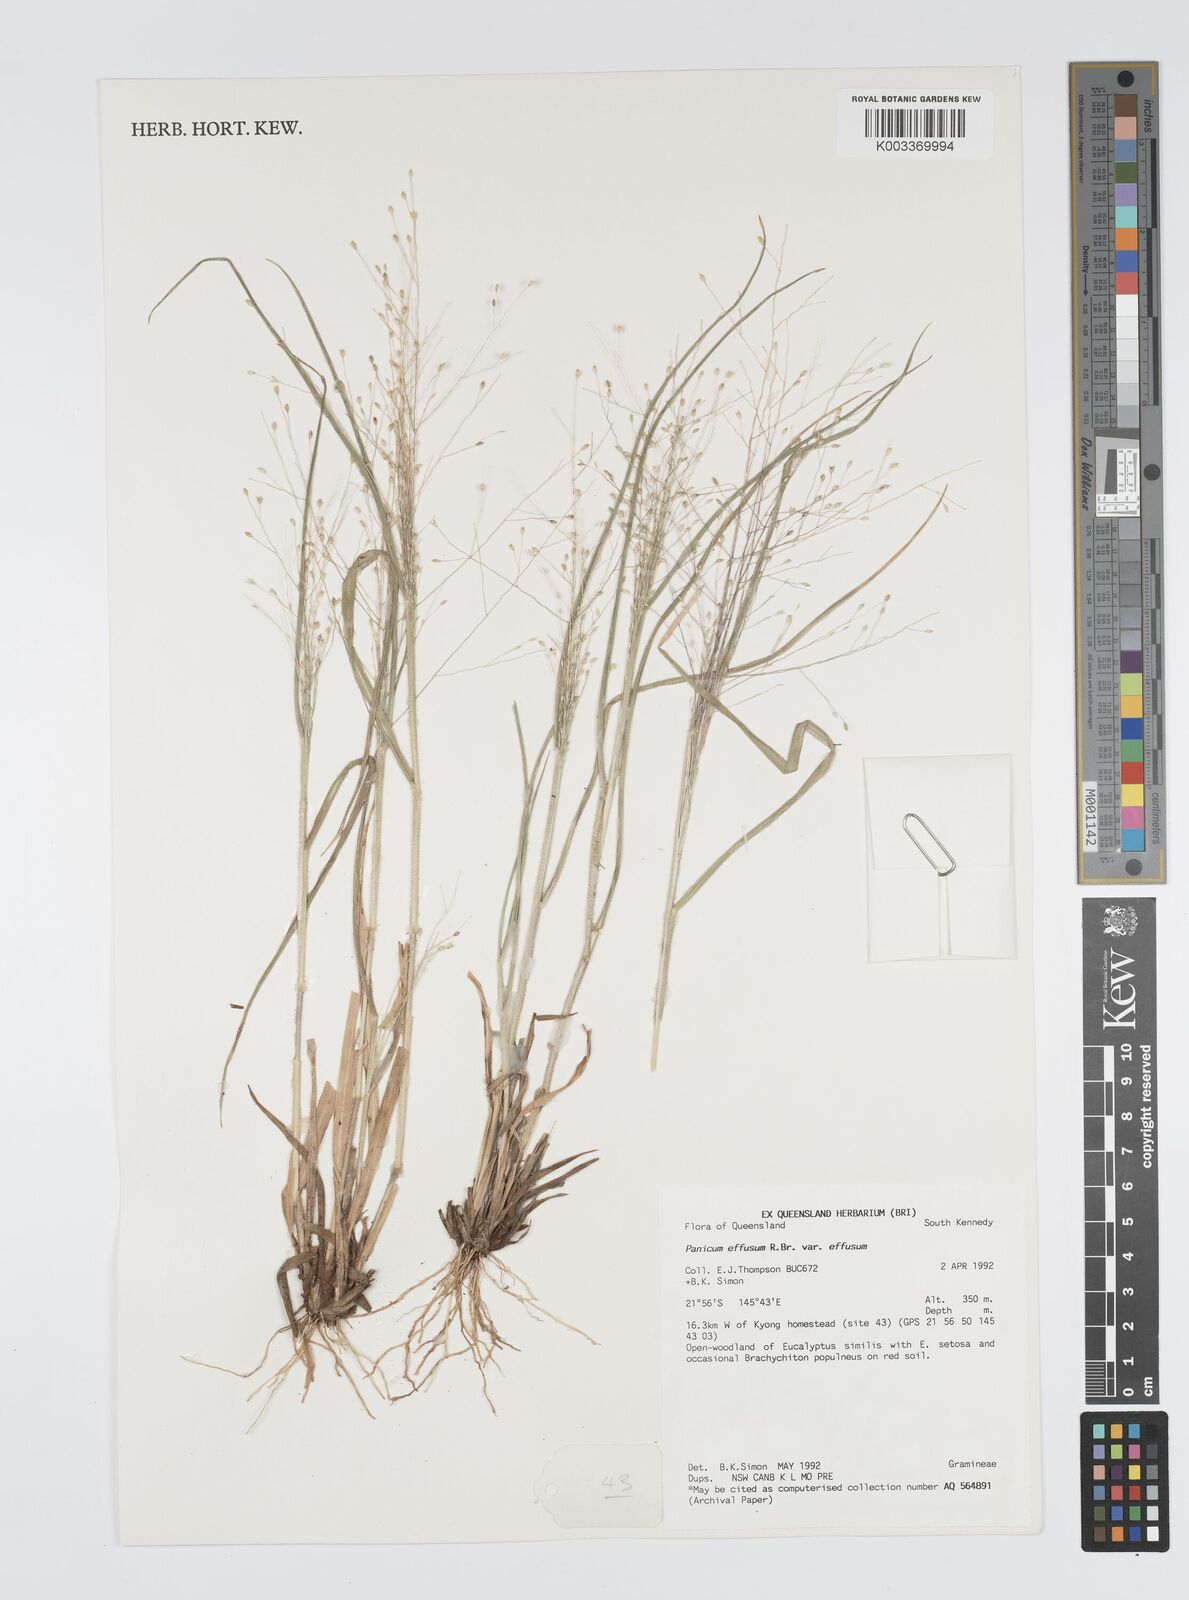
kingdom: Plantae
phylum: Tracheophyta
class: Liliopsida
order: Poales
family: Poaceae
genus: Panicum
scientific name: Panicum effusum
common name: Hairy panic grass
